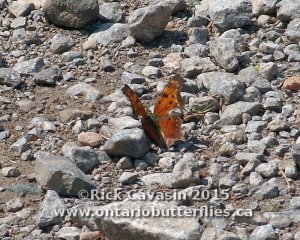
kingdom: Animalia
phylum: Arthropoda
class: Insecta
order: Lepidoptera
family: Nymphalidae
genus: Polygonia
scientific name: Polygonia progne
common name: Gray Comma
